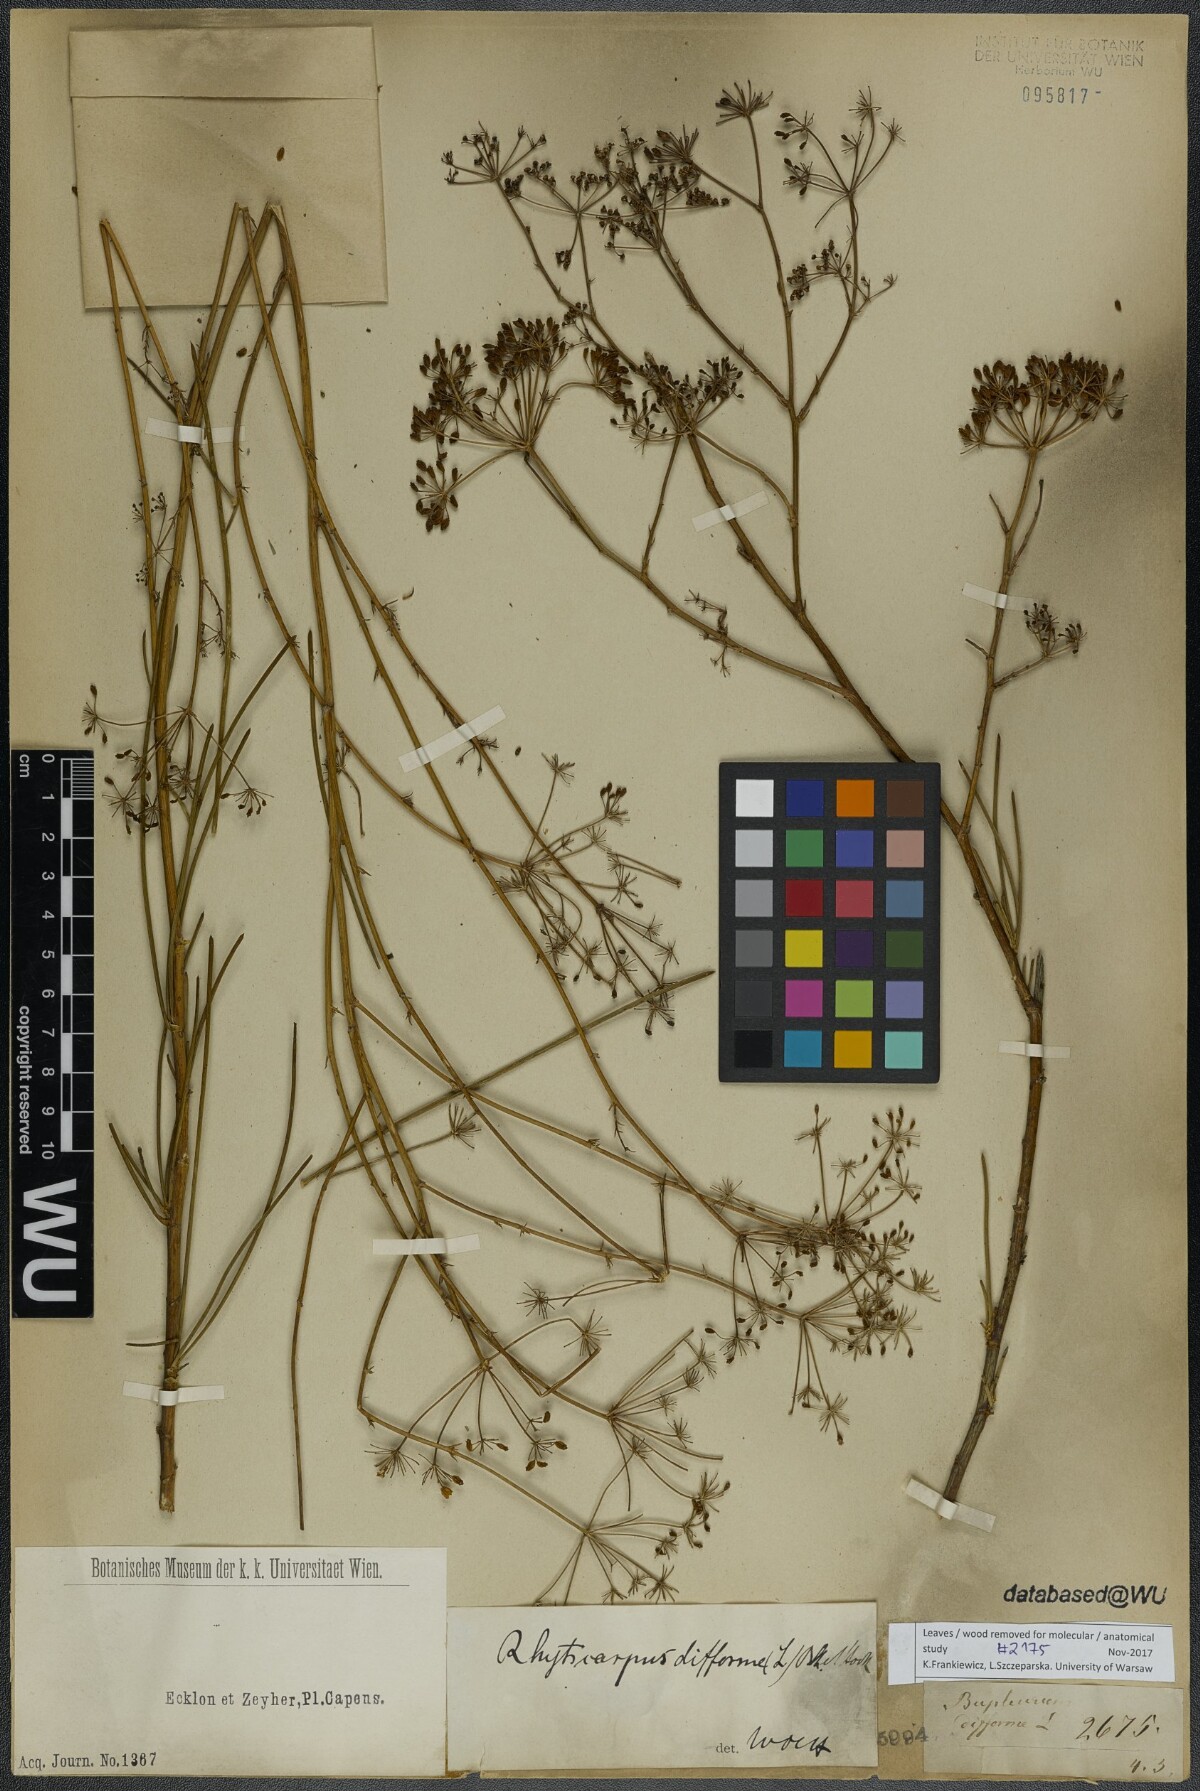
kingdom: Plantae
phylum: Tracheophyta
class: Magnoliopsida
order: Apiales
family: Apiaceae
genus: Anginon
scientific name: Anginon difforme
